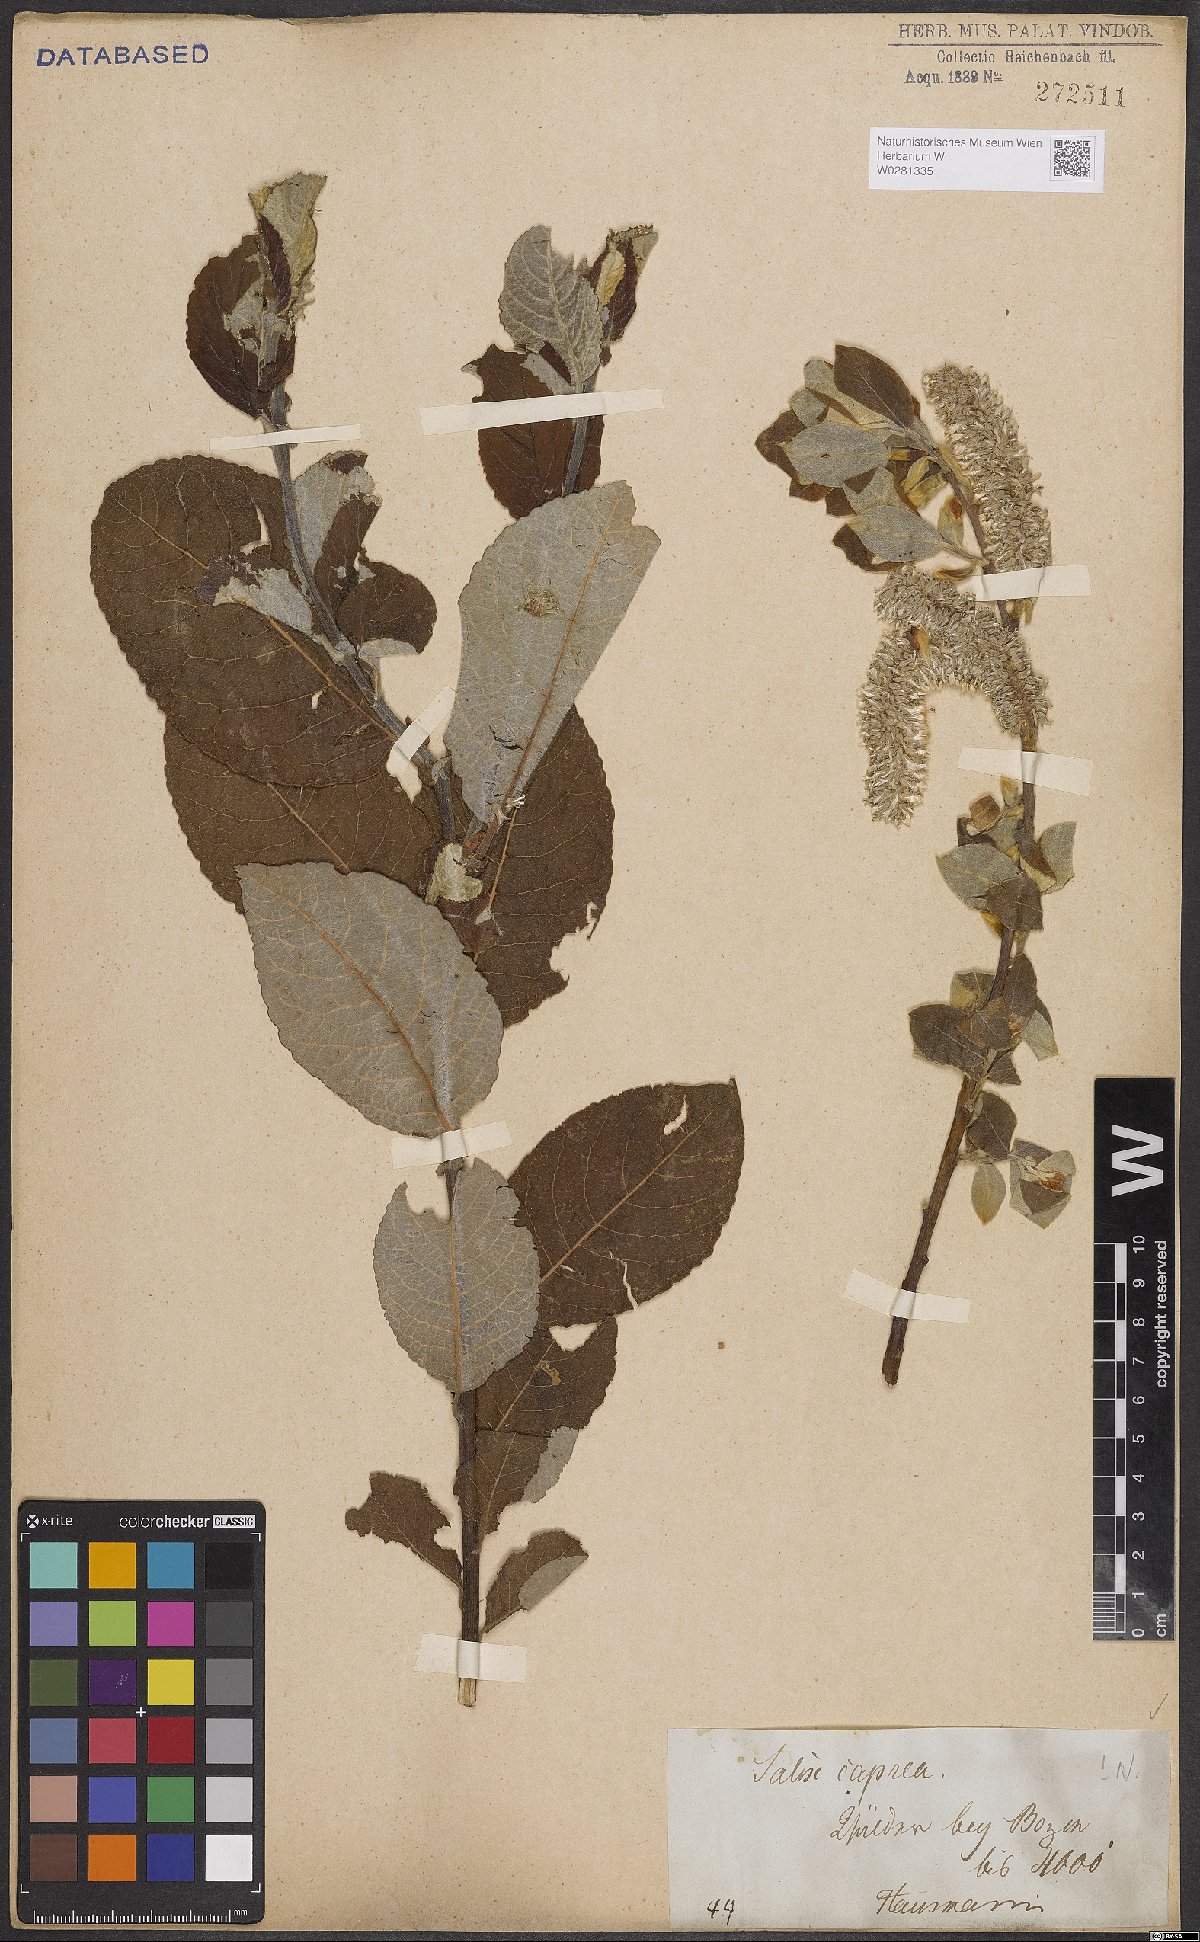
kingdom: Plantae
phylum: Tracheophyta
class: Magnoliopsida
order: Malpighiales
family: Salicaceae
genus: Salix
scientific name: Salix caprea
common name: Goat willow
